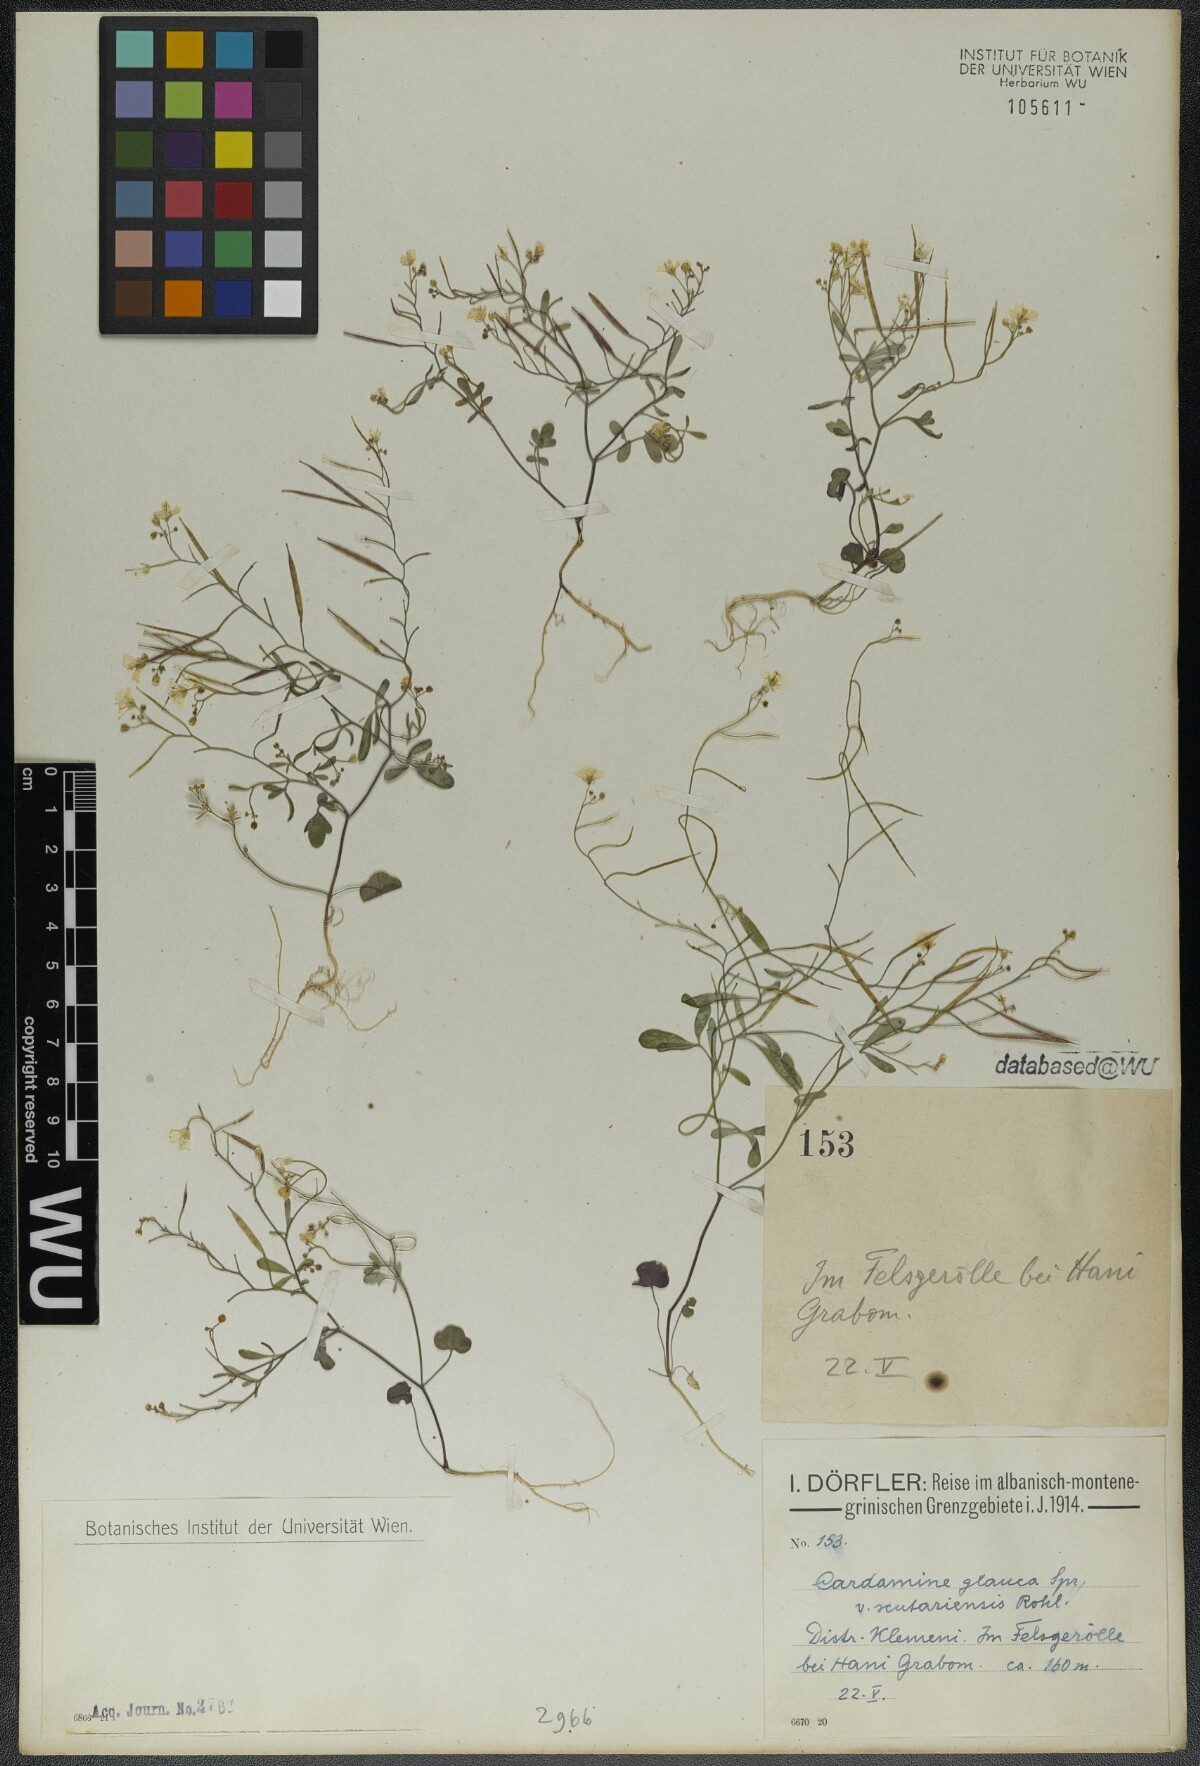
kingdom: Plantae
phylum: Tracheophyta
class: Magnoliopsida
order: Brassicales
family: Brassicaceae
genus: Cardamine
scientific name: Cardamine glauca
